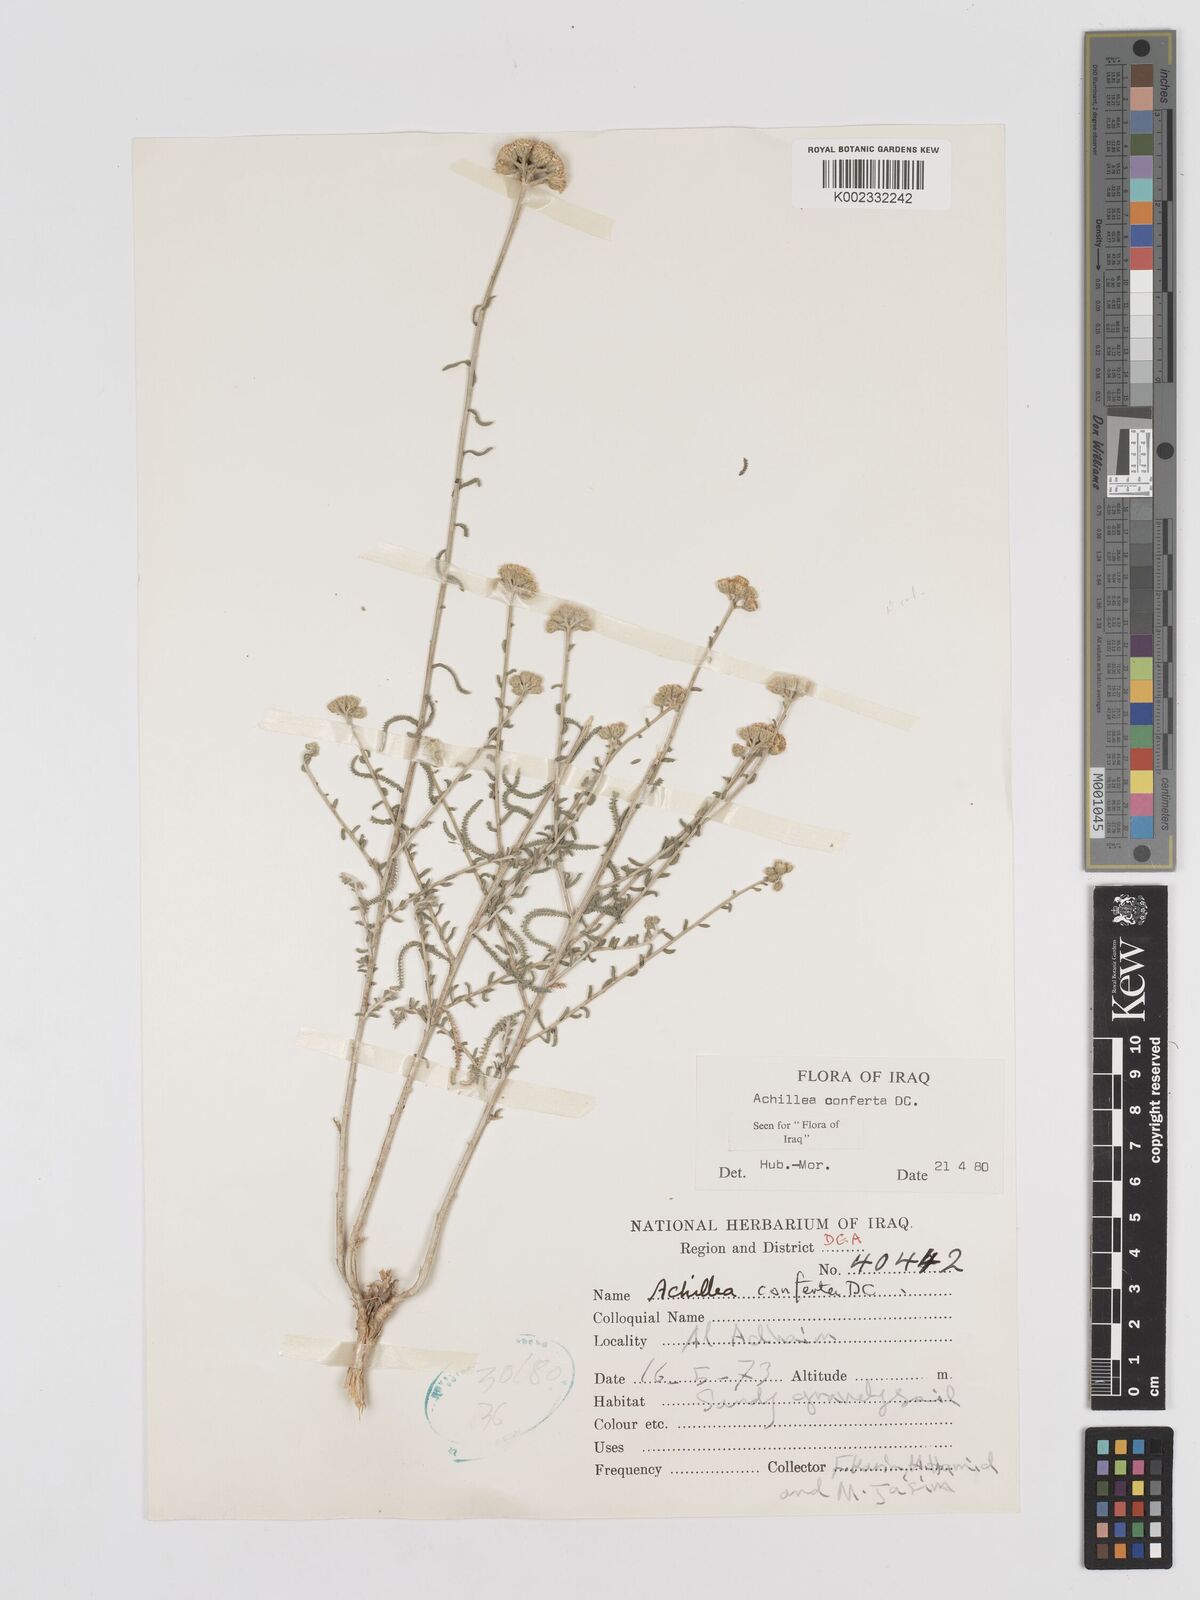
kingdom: Plantae
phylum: Tracheophyta
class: Magnoliopsida
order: Asterales
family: Asteraceae
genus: Achillea
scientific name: Achillea conferta
